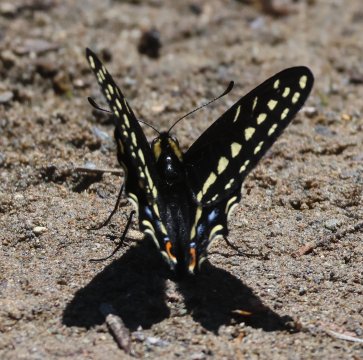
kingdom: Animalia
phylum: Arthropoda
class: Insecta
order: Lepidoptera
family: Papilionidae
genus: Papilio
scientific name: Papilio zelicaon
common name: Anise Swallowtail
